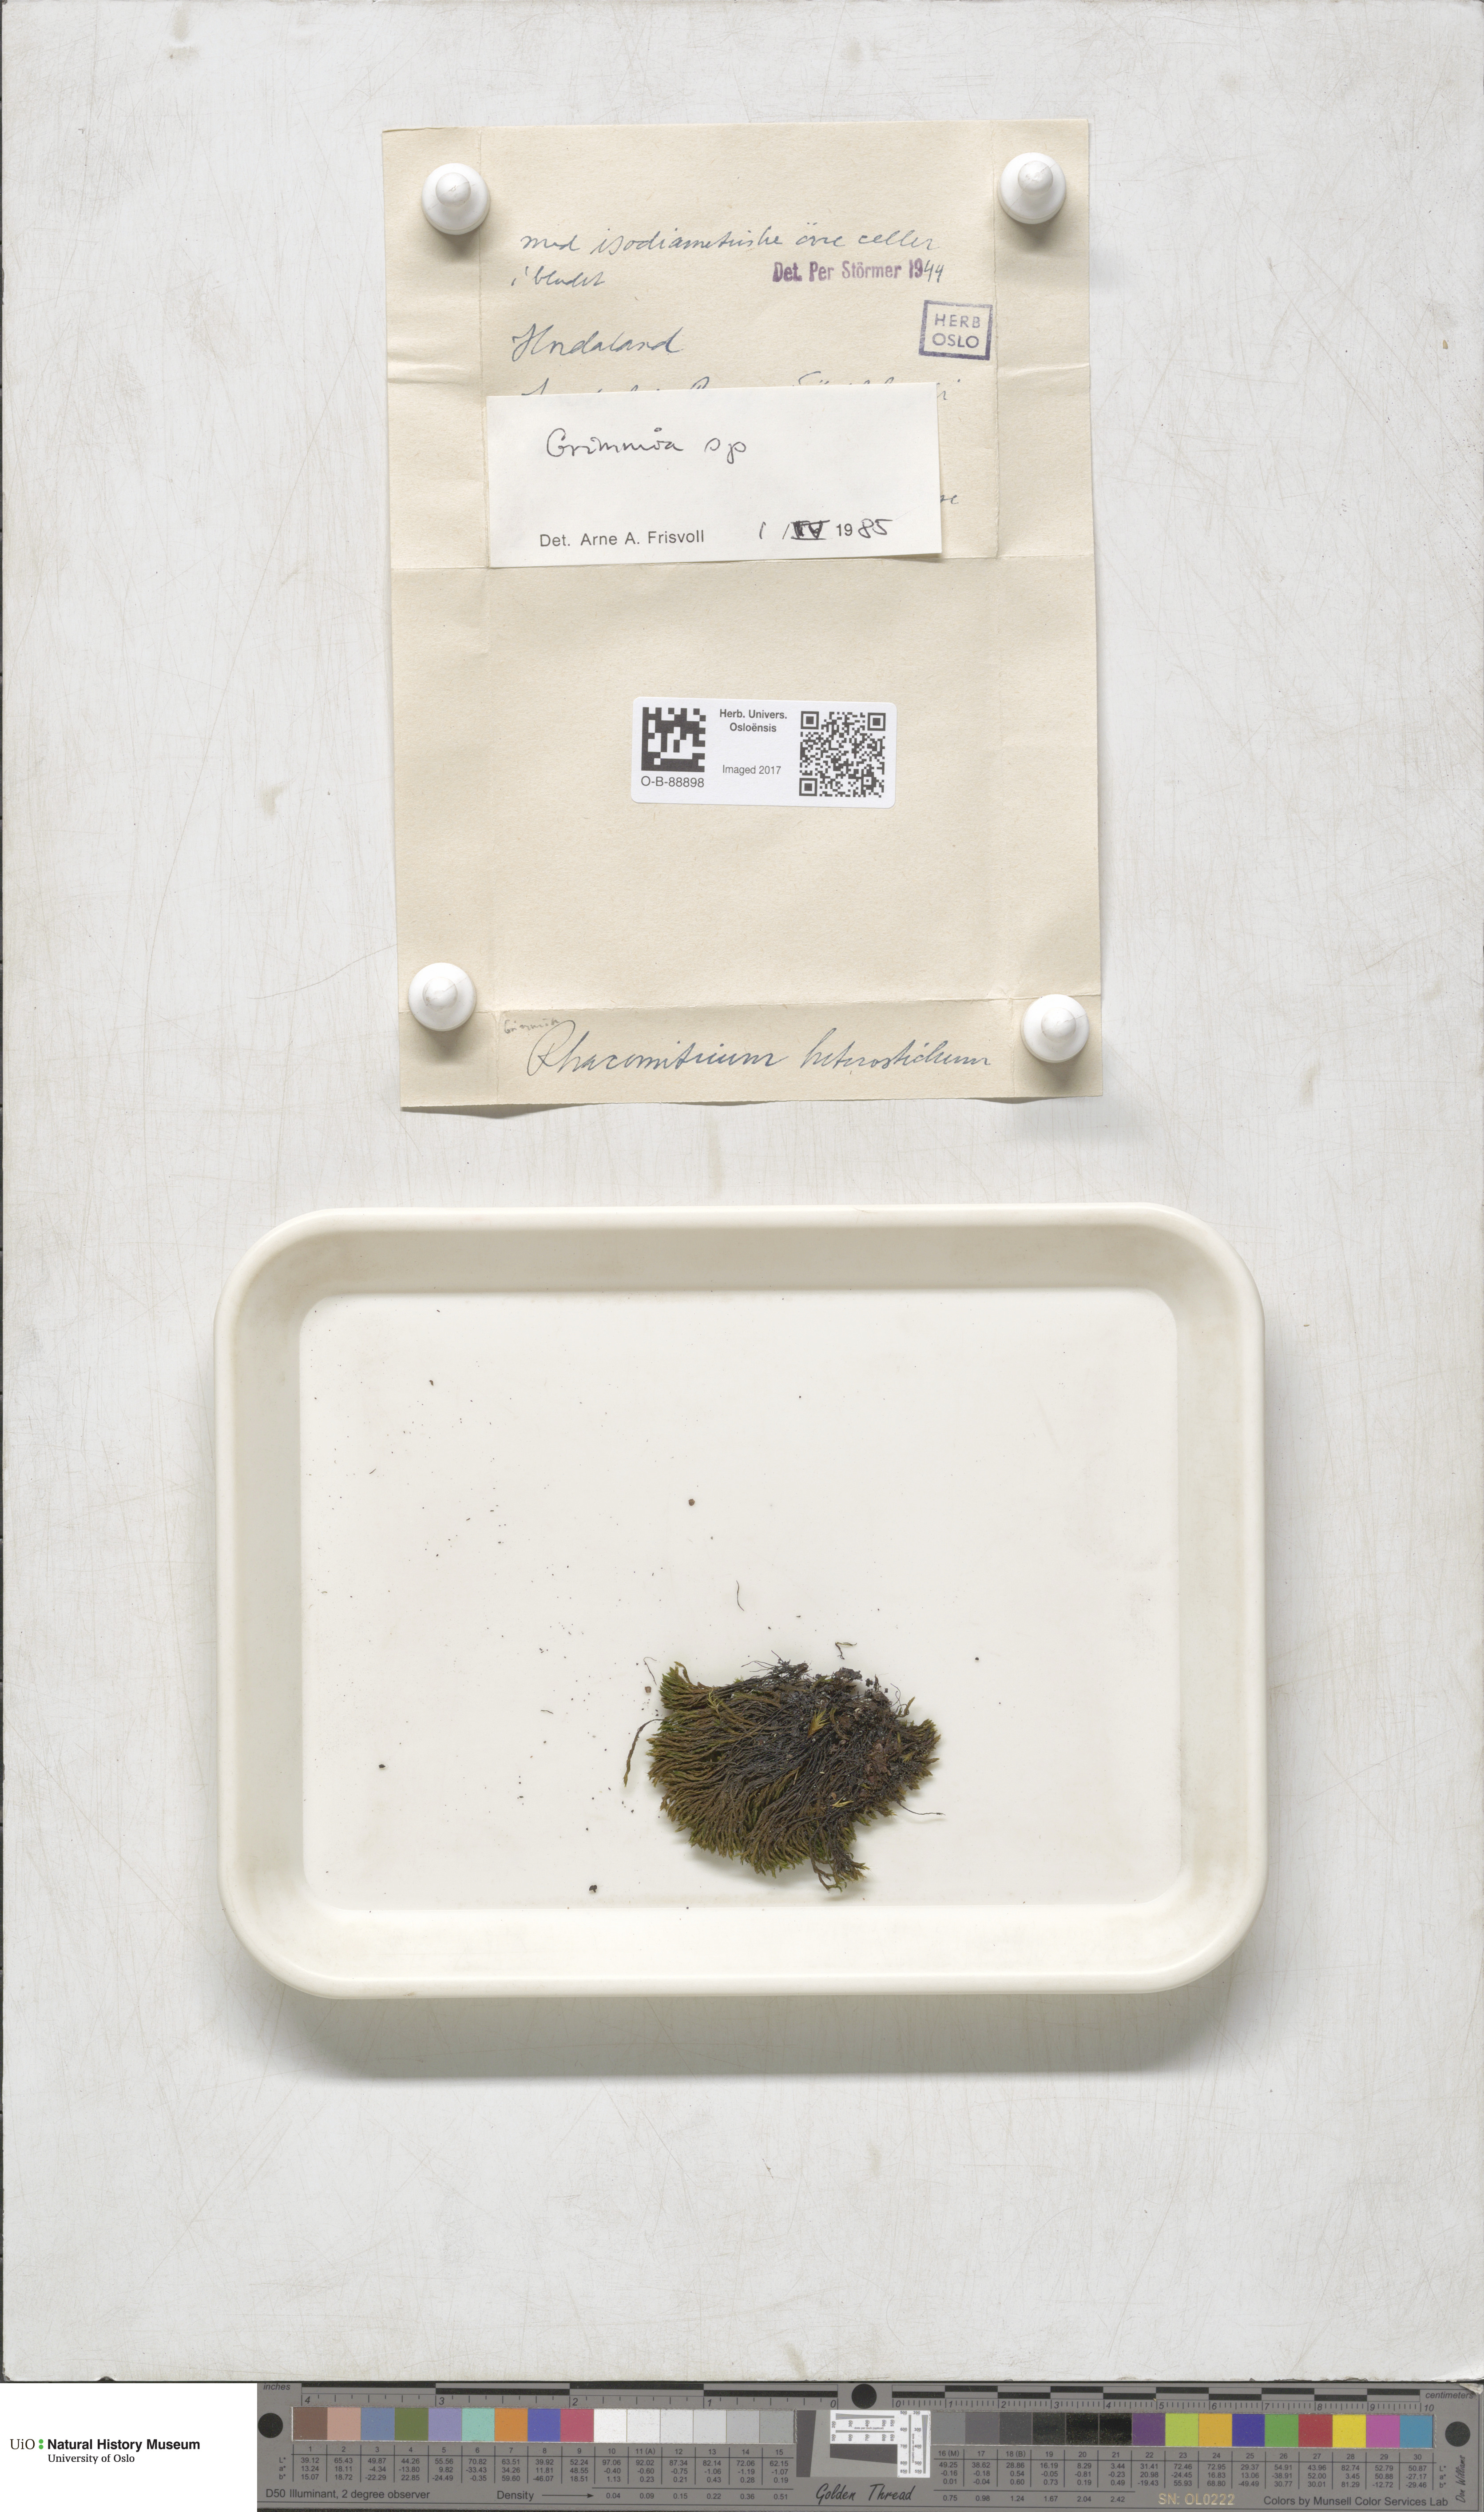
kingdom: Plantae
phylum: Bryophyta
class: Bryopsida
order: Grimmiales
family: Grimmiaceae
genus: Grimmia
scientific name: Grimmia
